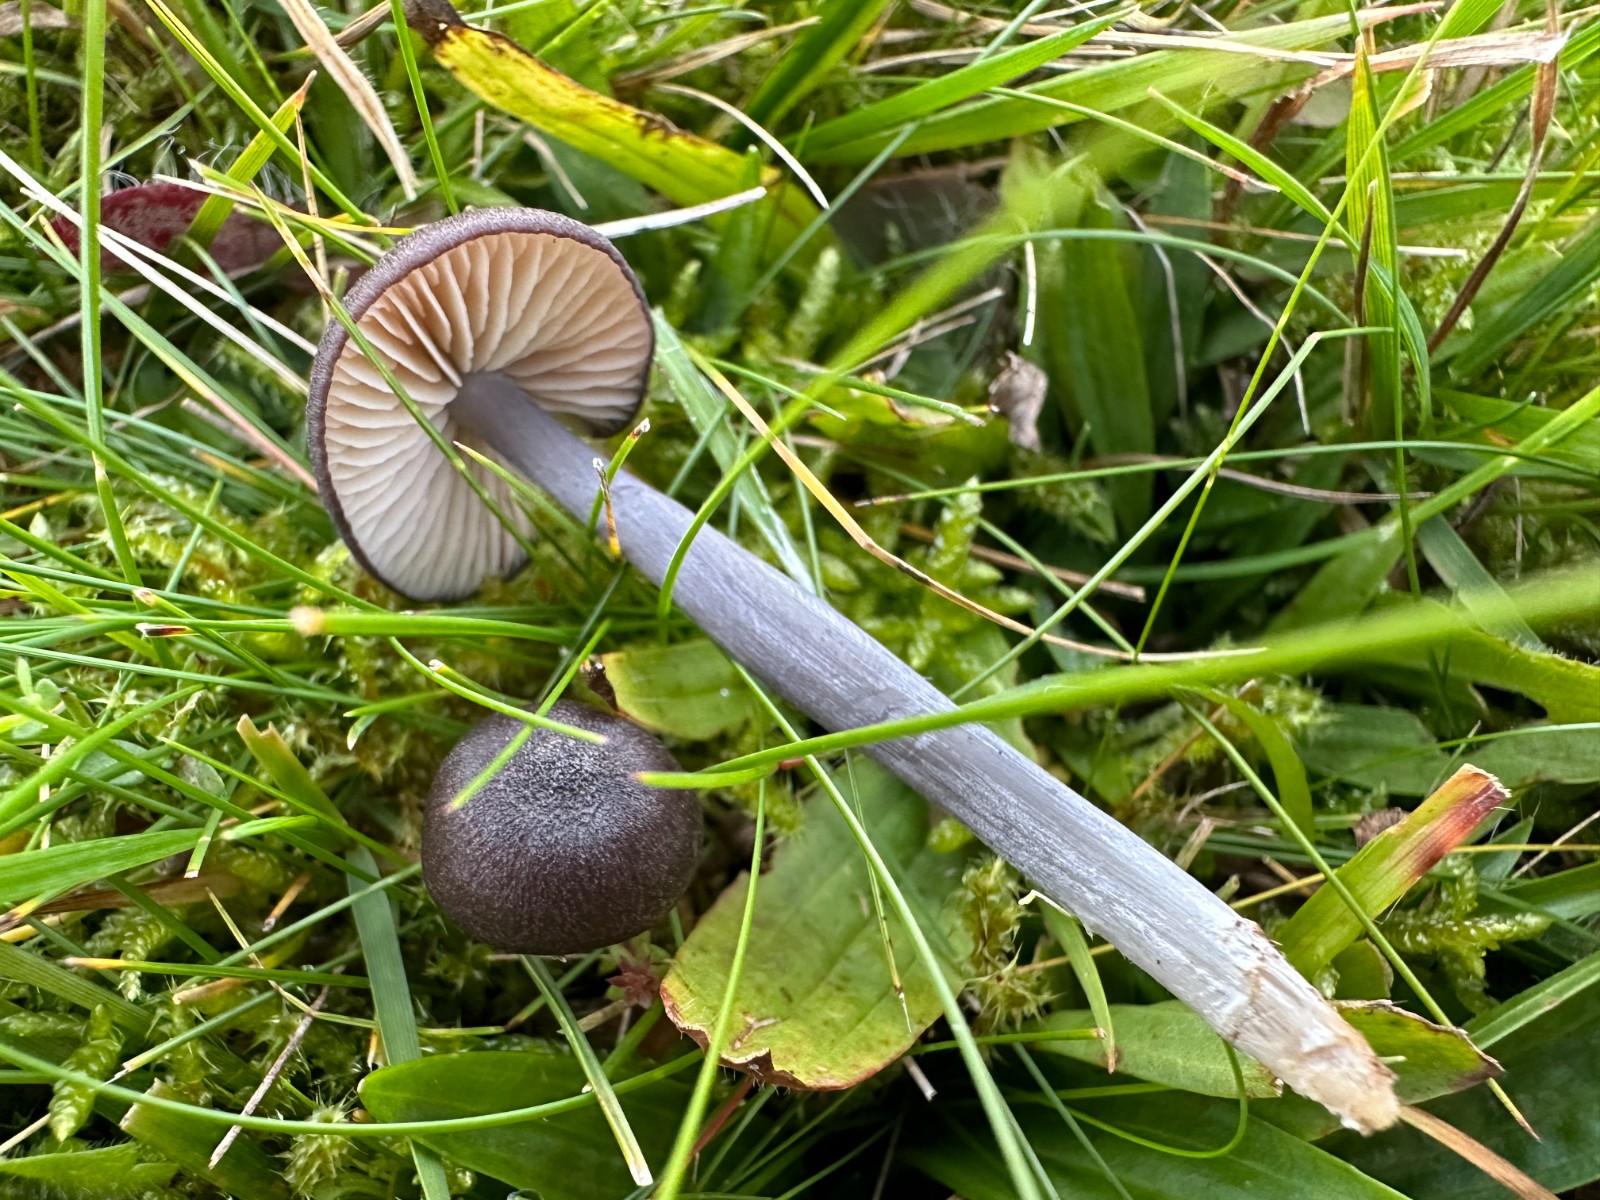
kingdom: Fungi
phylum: Basidiomycota
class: Agaricomycetes
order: Agaricales
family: Entolomataceae
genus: Entoloma
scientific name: Entoloma
